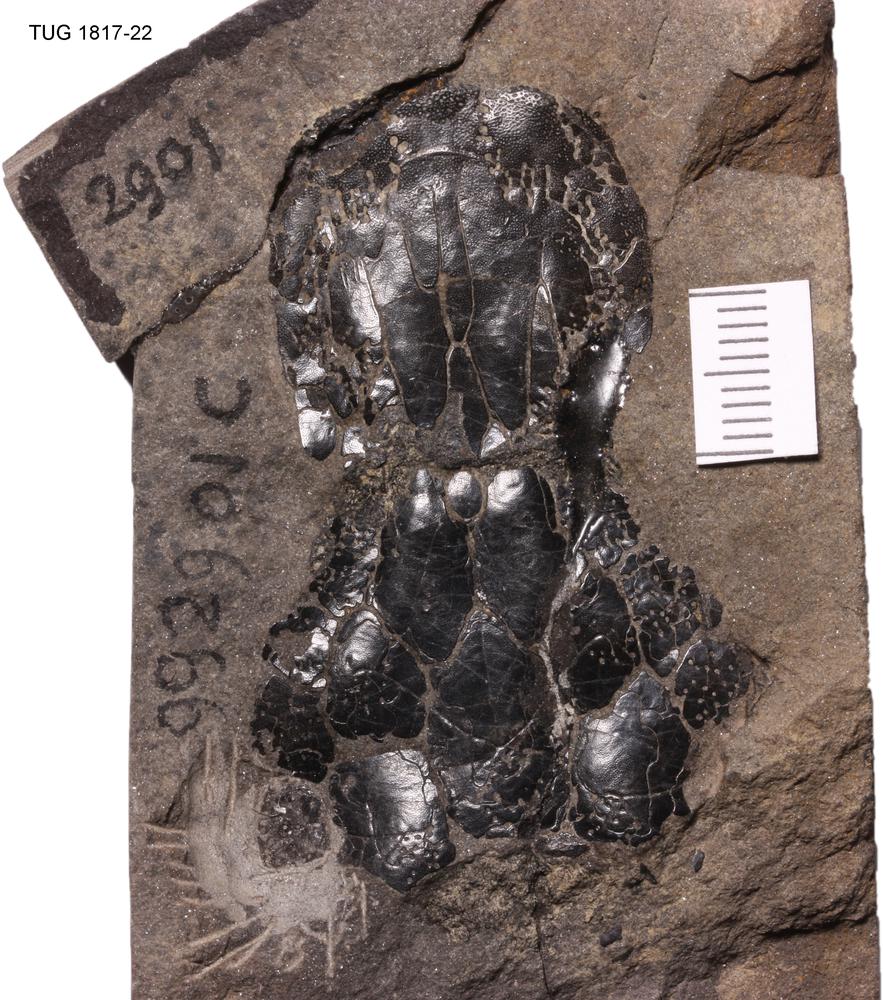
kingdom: Animalia
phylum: Chordata
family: Dipteridae
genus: Dipterus
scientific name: Dipterus valenciennesi
